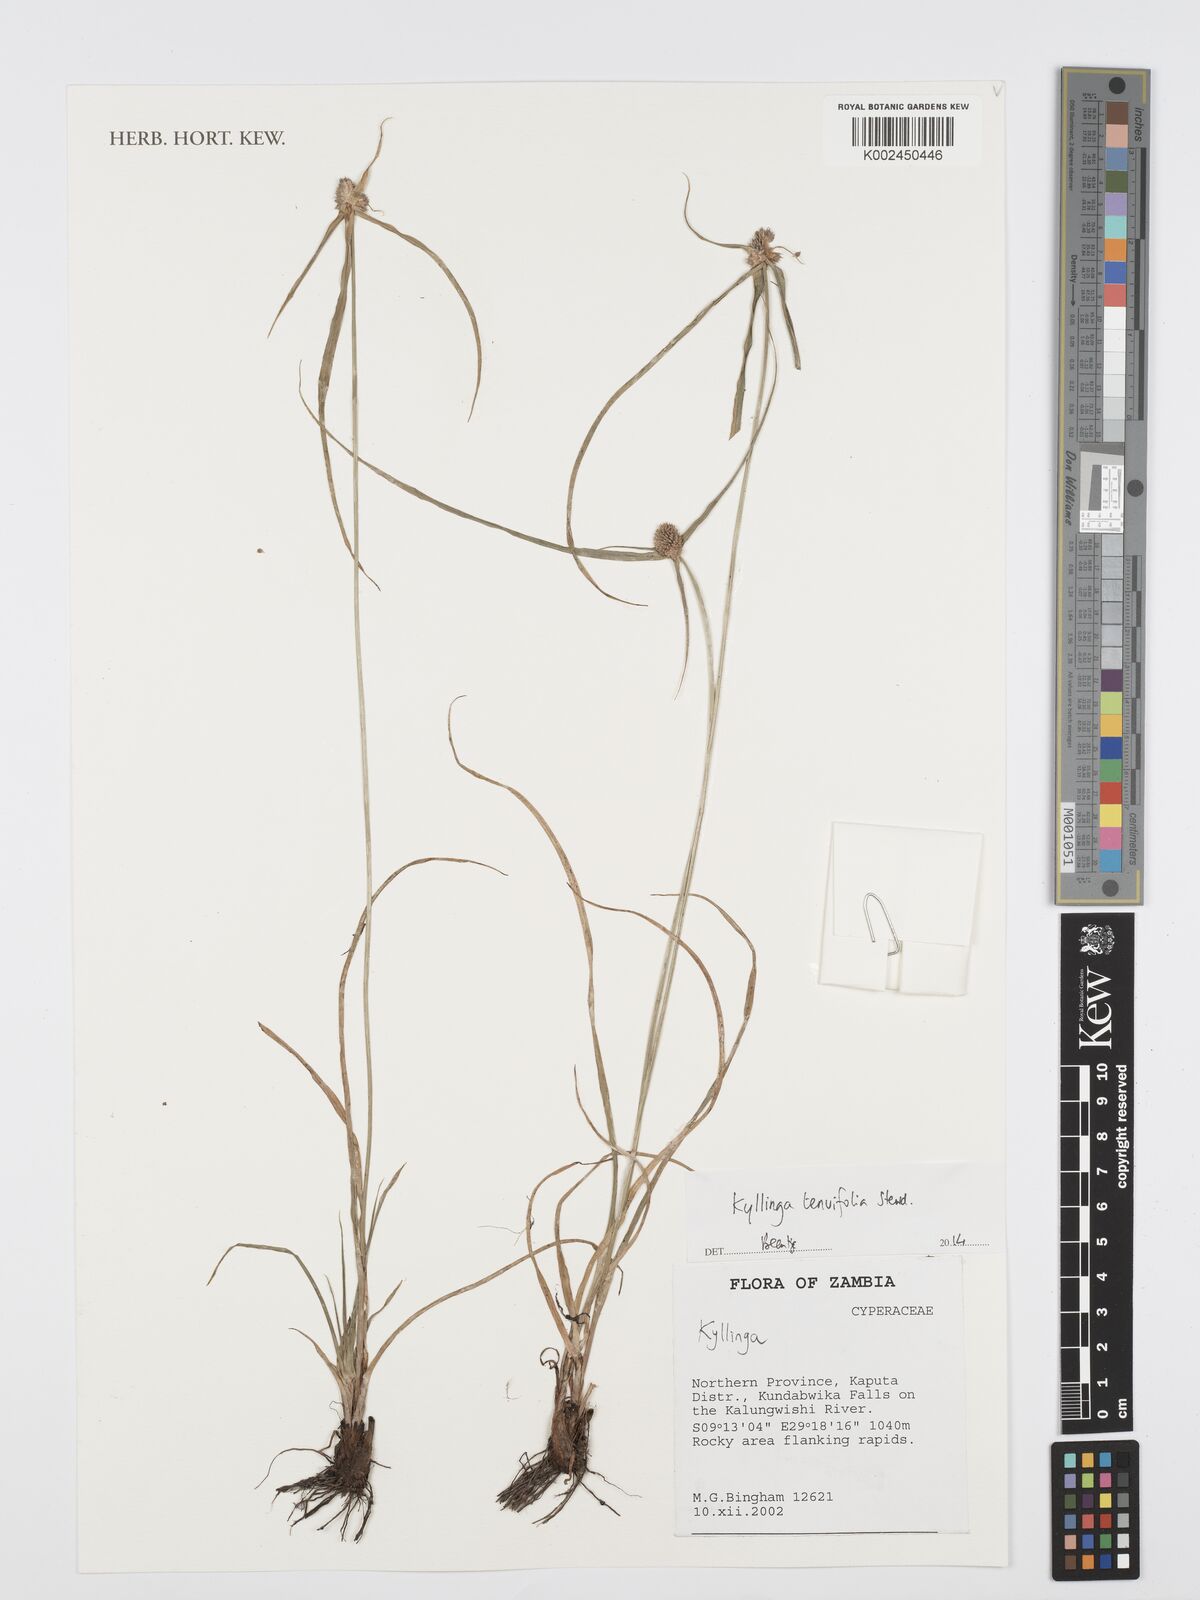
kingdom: Plantae
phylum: Tracheophyta
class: Liliopsida
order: Poales
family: Cyperaceae
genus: Cyperus
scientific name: Cyperus tenuifolius
